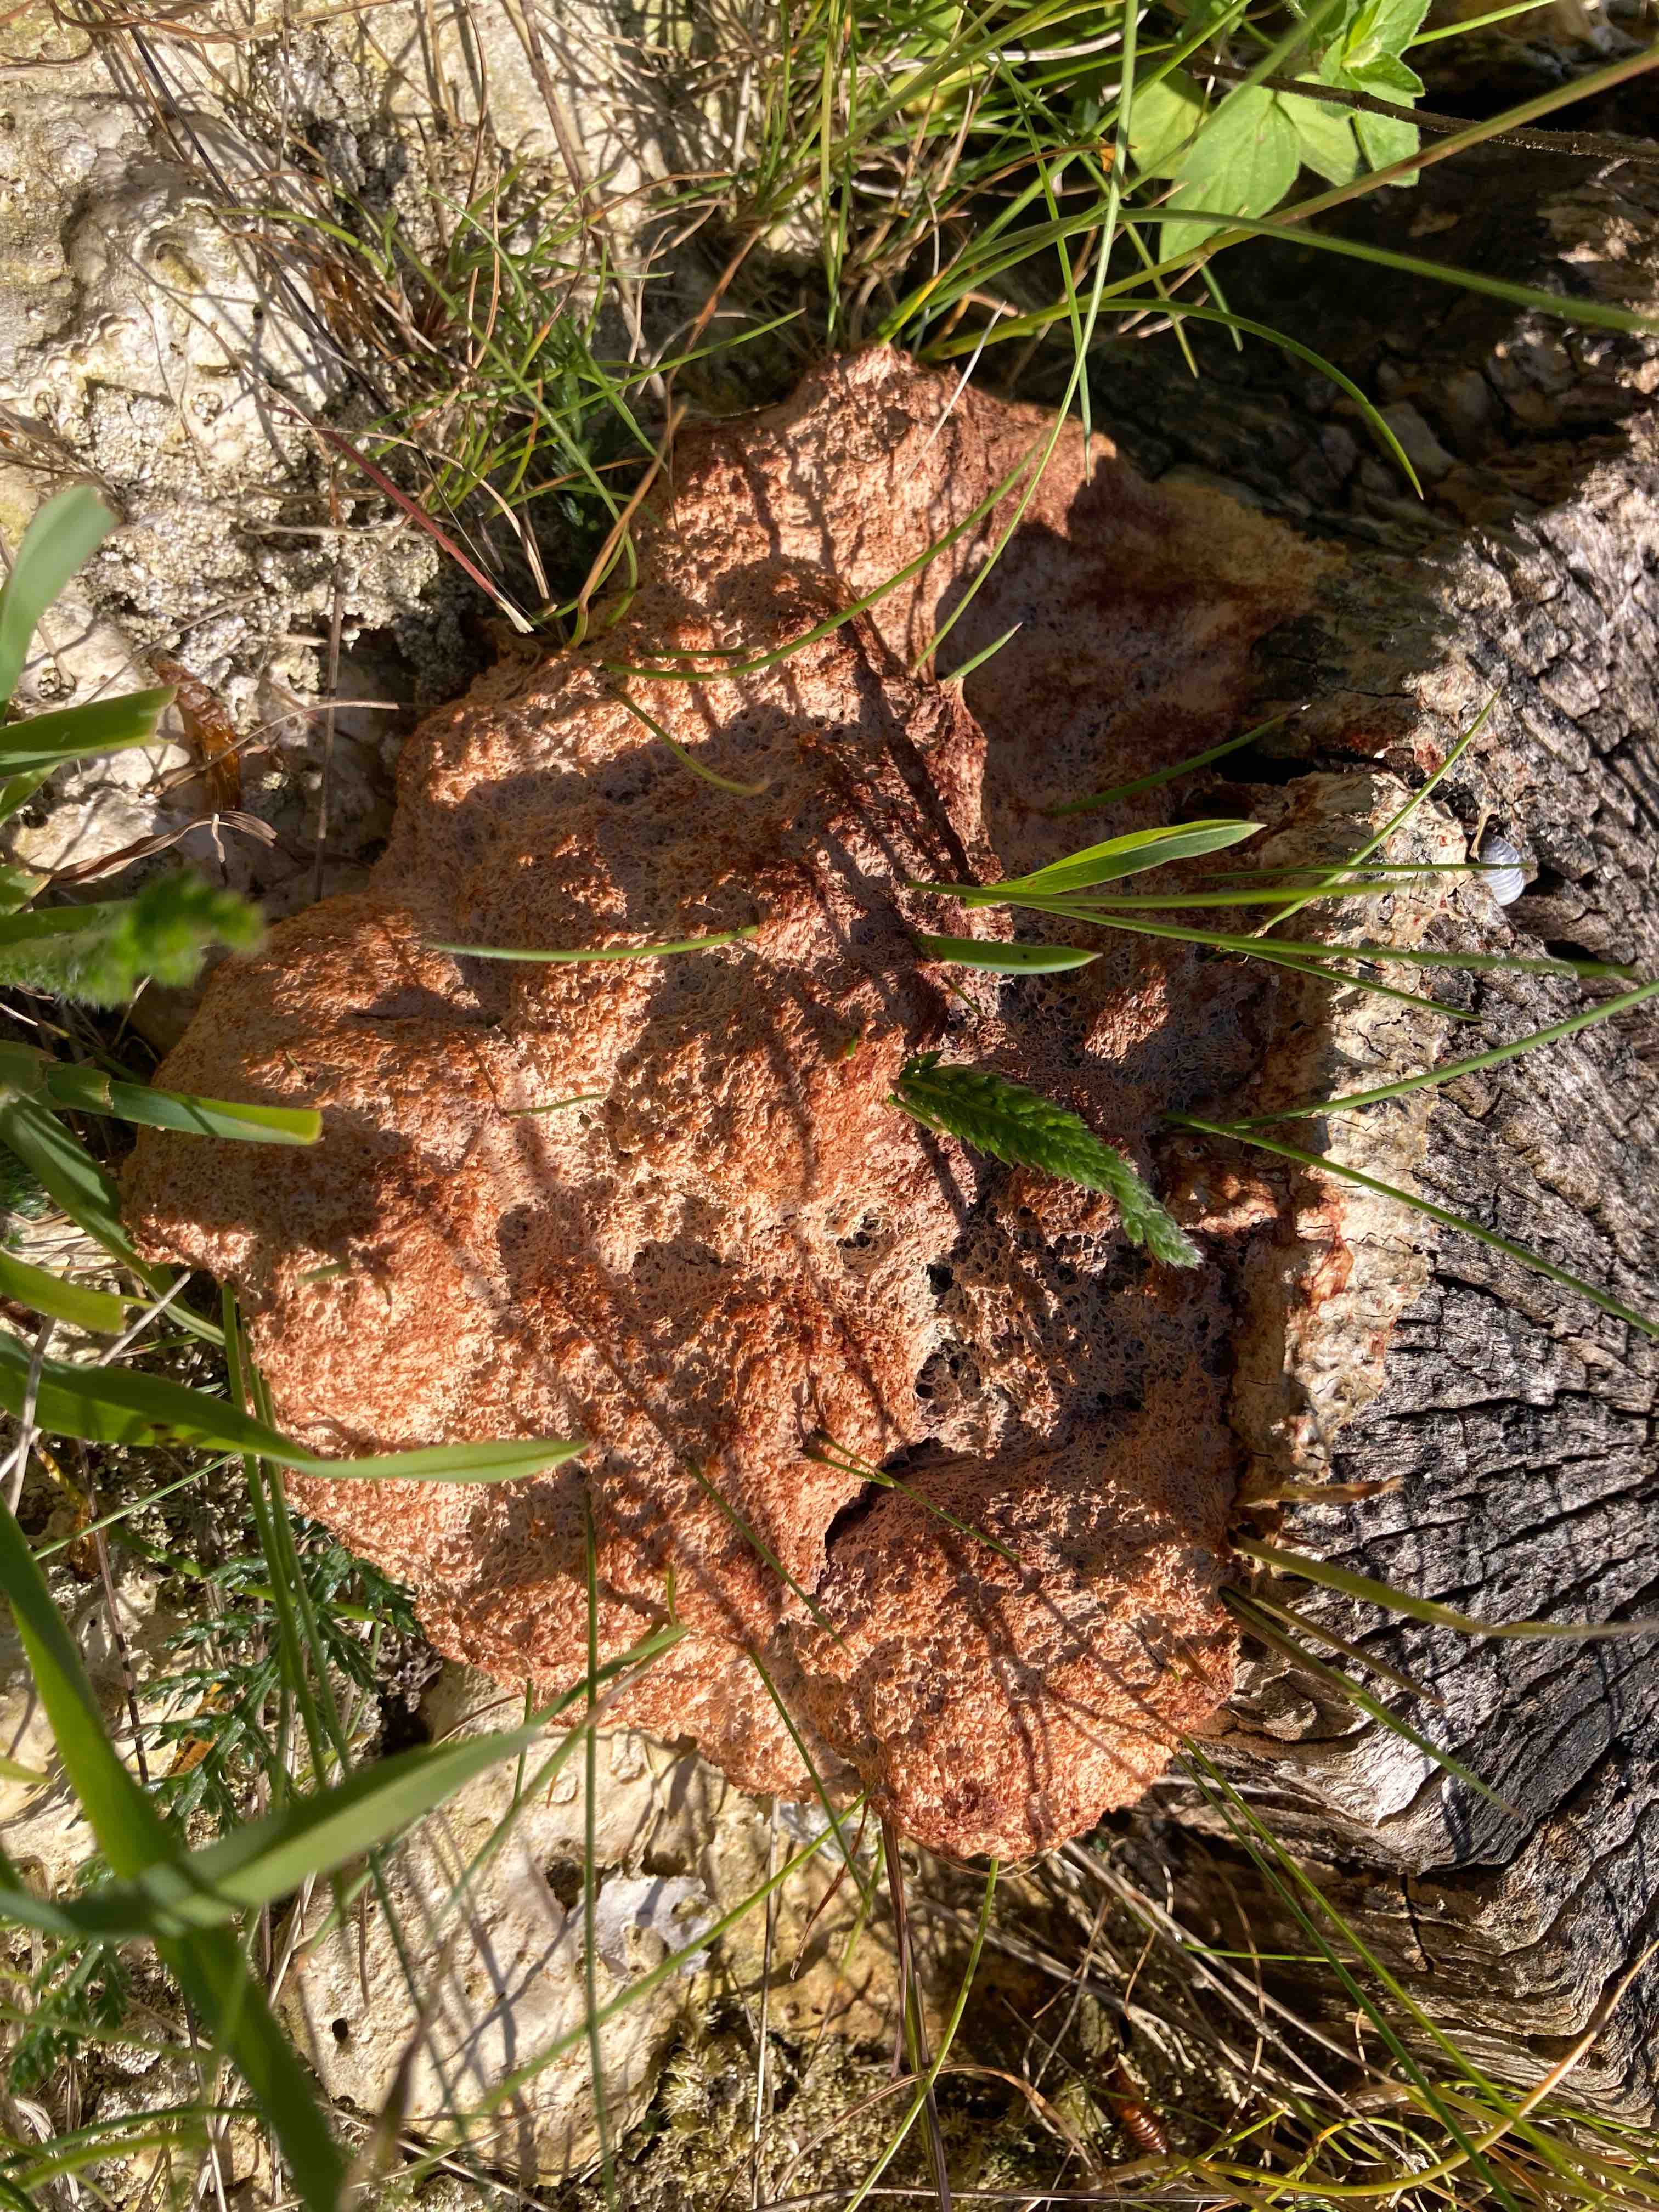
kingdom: Protozoa
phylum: Mycetozoa
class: Myxomycetes
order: Physarales
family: Physaraceae
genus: Fuligo
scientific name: Fuligo septica
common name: Dog vomit slime mold
